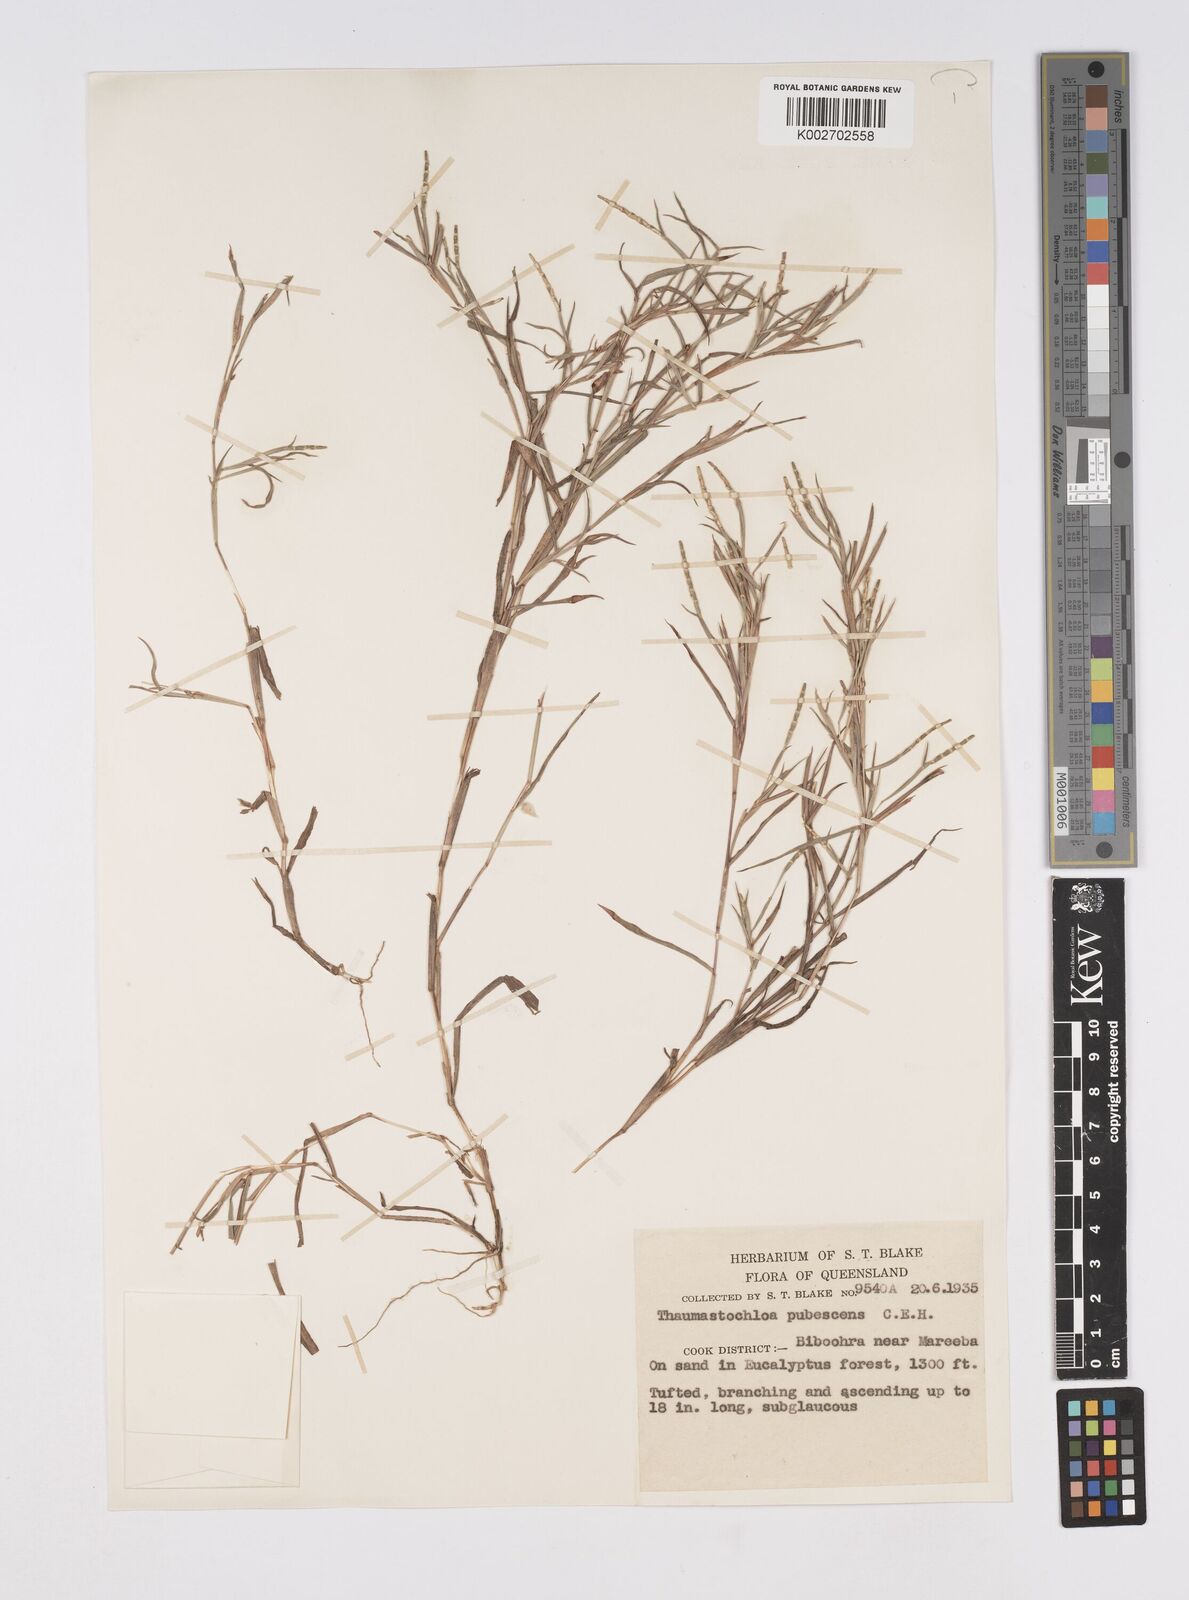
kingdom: Plantae
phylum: Tracheophyta
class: Liliopsida
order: Poales
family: Poaceae
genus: Thaumastochloa
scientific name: Thaumastochloa pubescens
